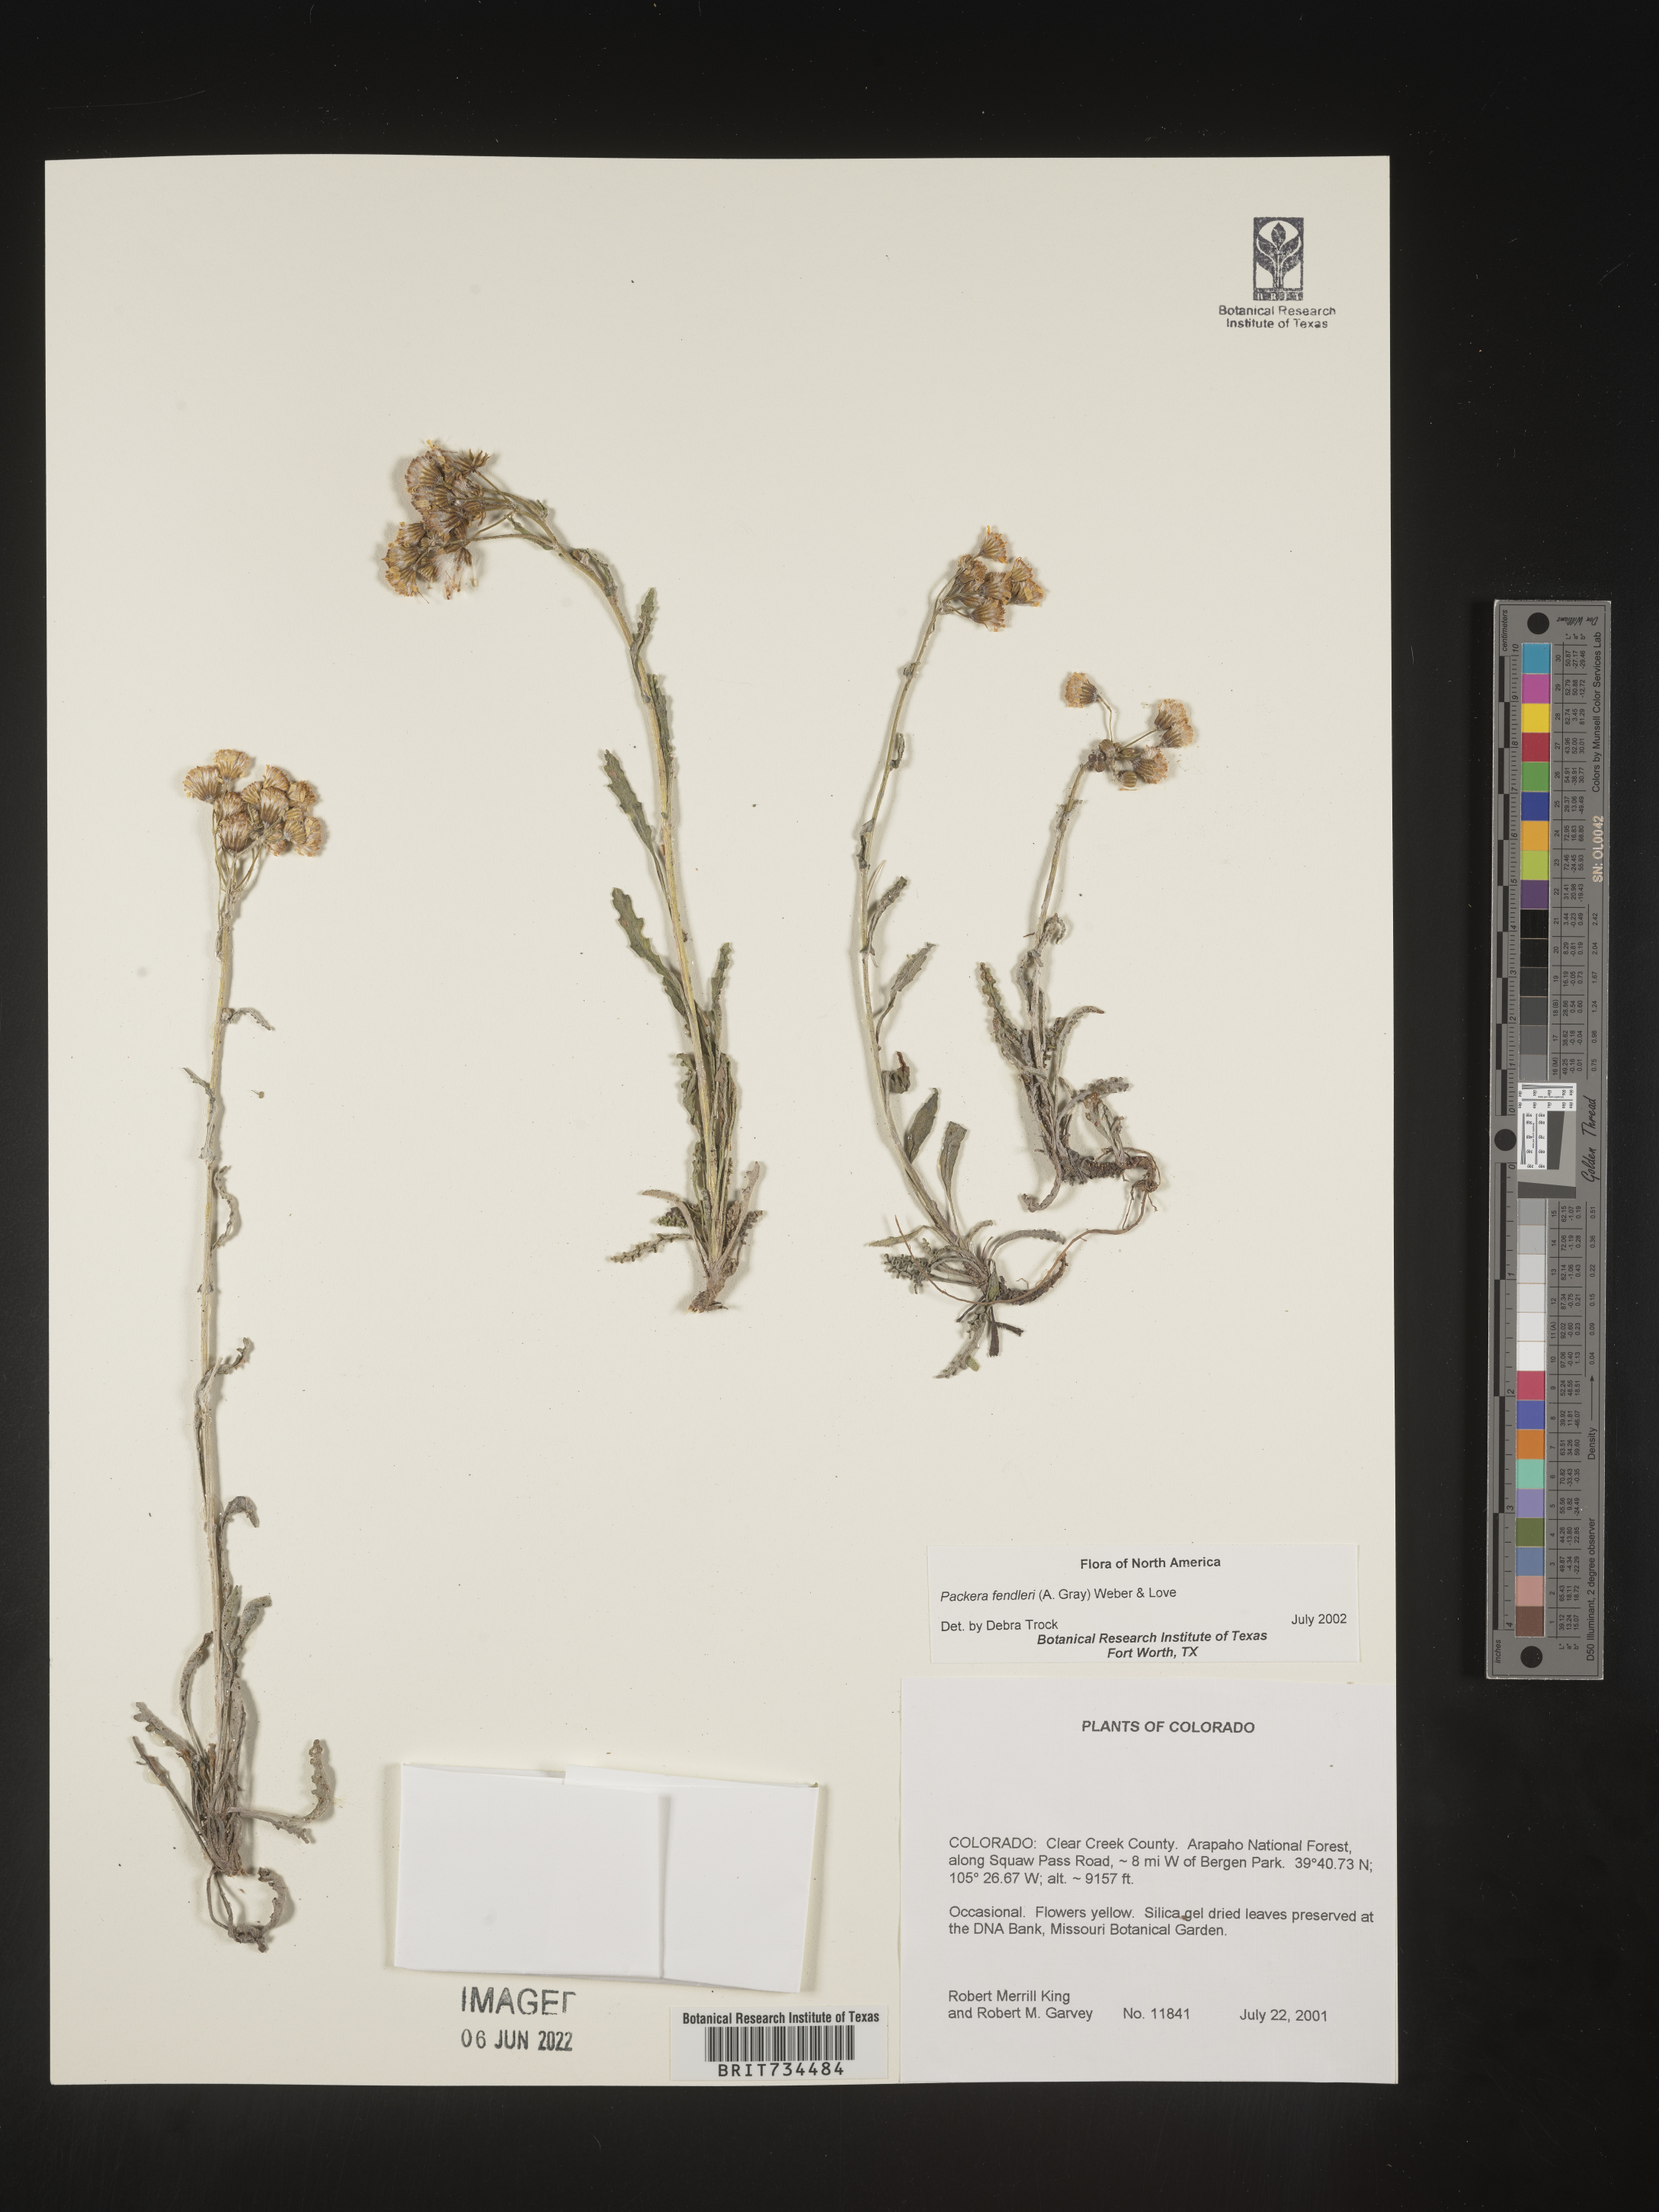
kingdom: Plantae
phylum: Tracheophyta
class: Magnoliopsida
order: Asterales
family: Asteraceae
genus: Packera
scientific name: Packera fendleri
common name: Notch-leaf butterweed
